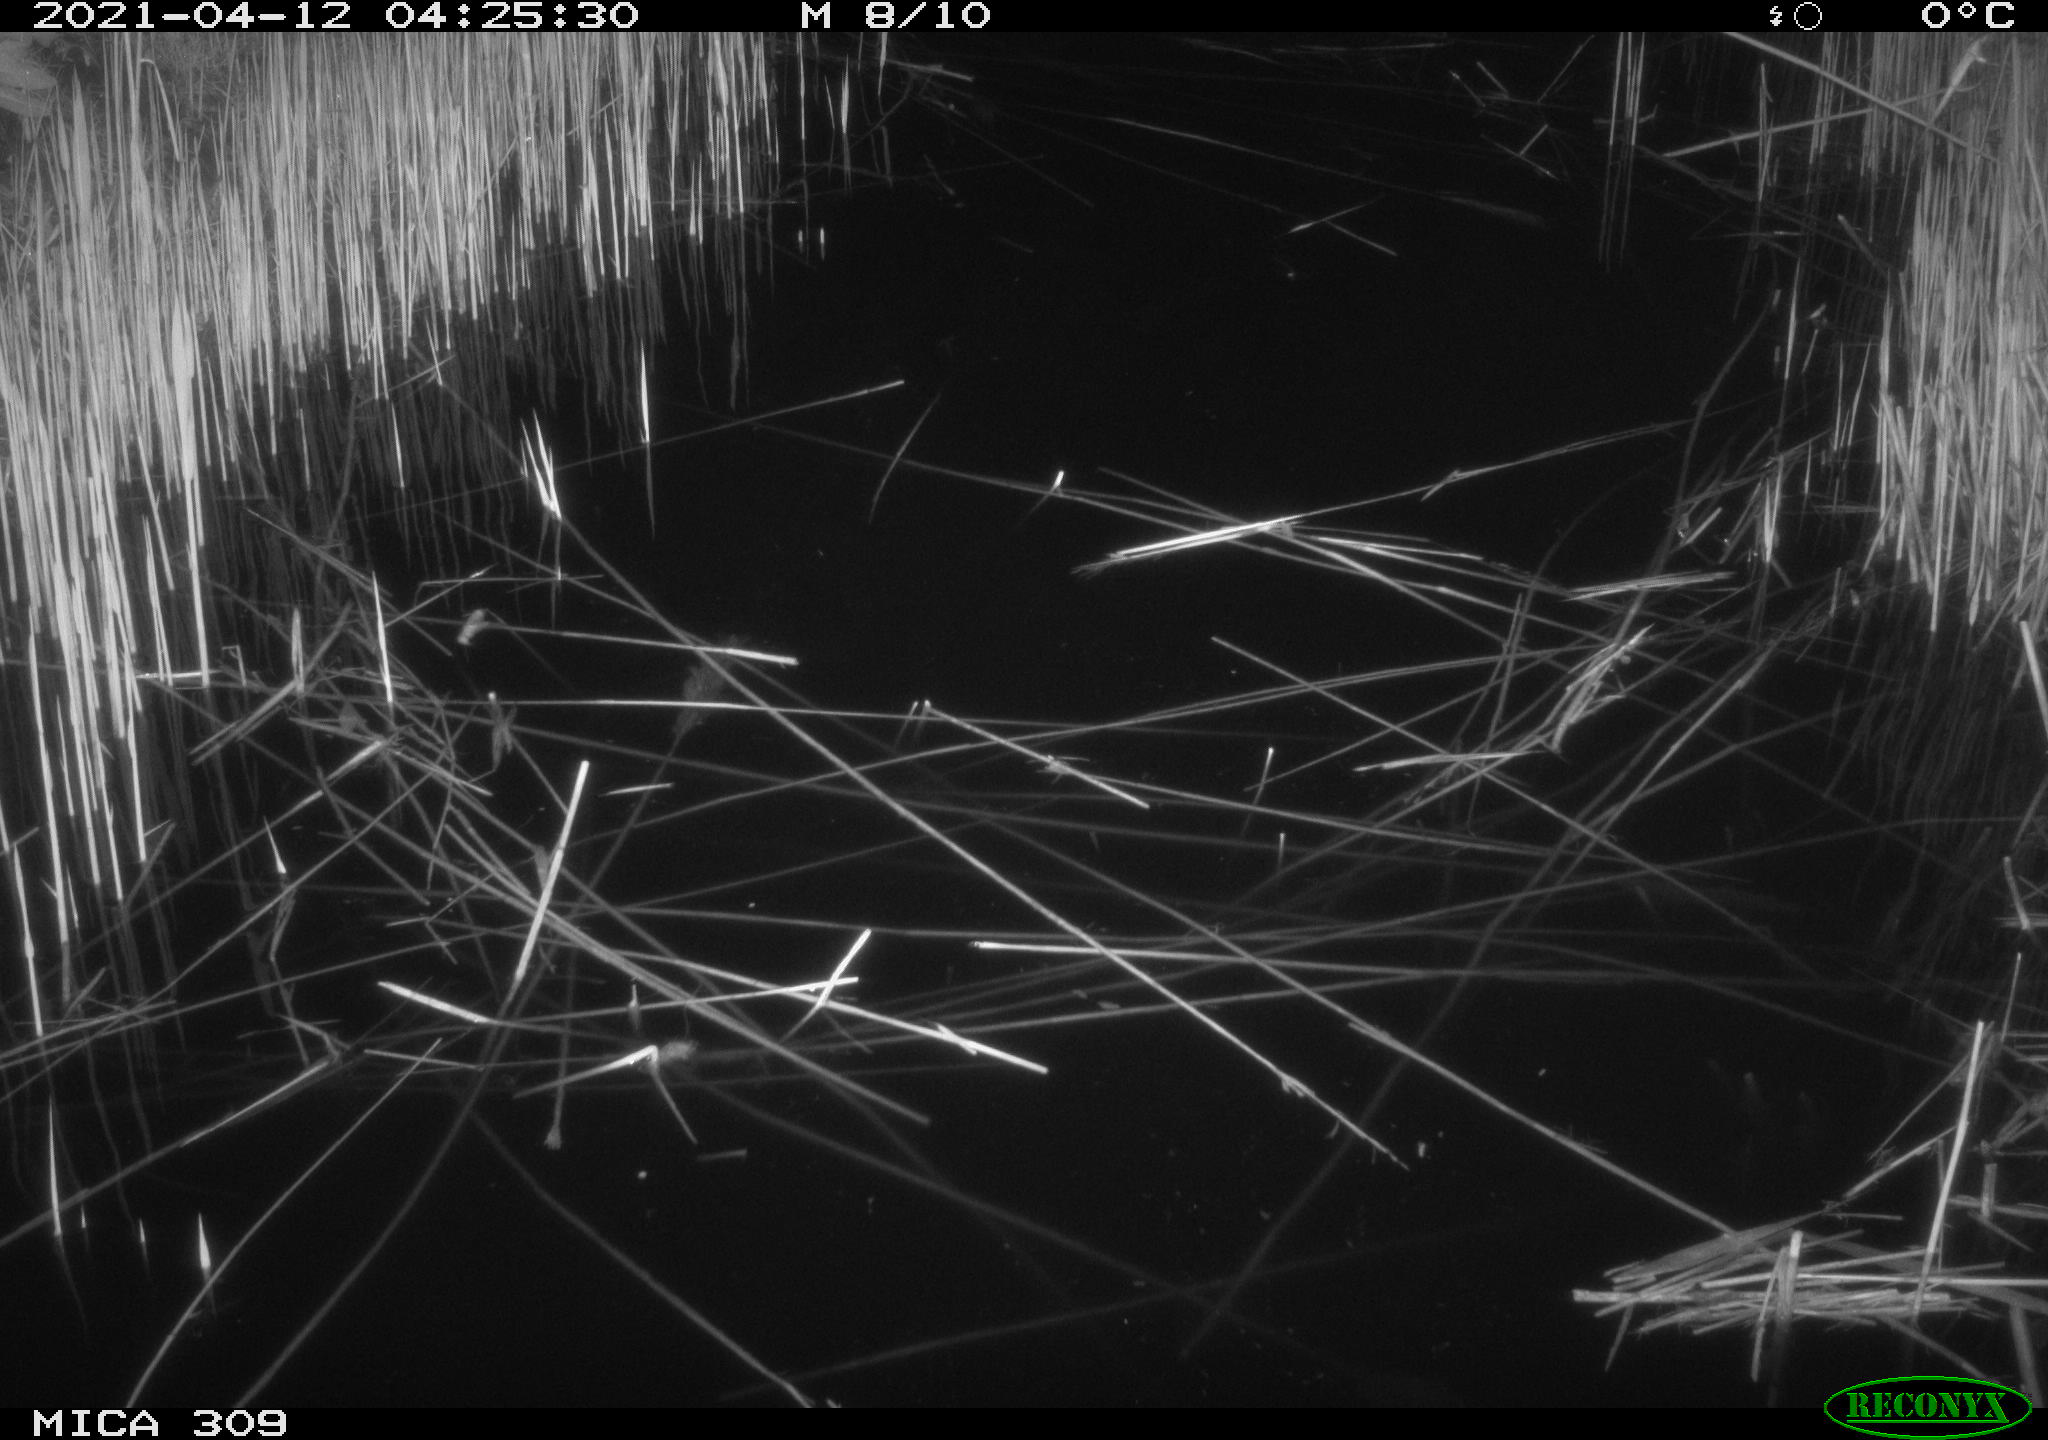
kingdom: Animalia
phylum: Chordata
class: Aves
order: Anseriformes
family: Anatidae
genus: Anas
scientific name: Anas platyrhynchos
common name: Mallard
